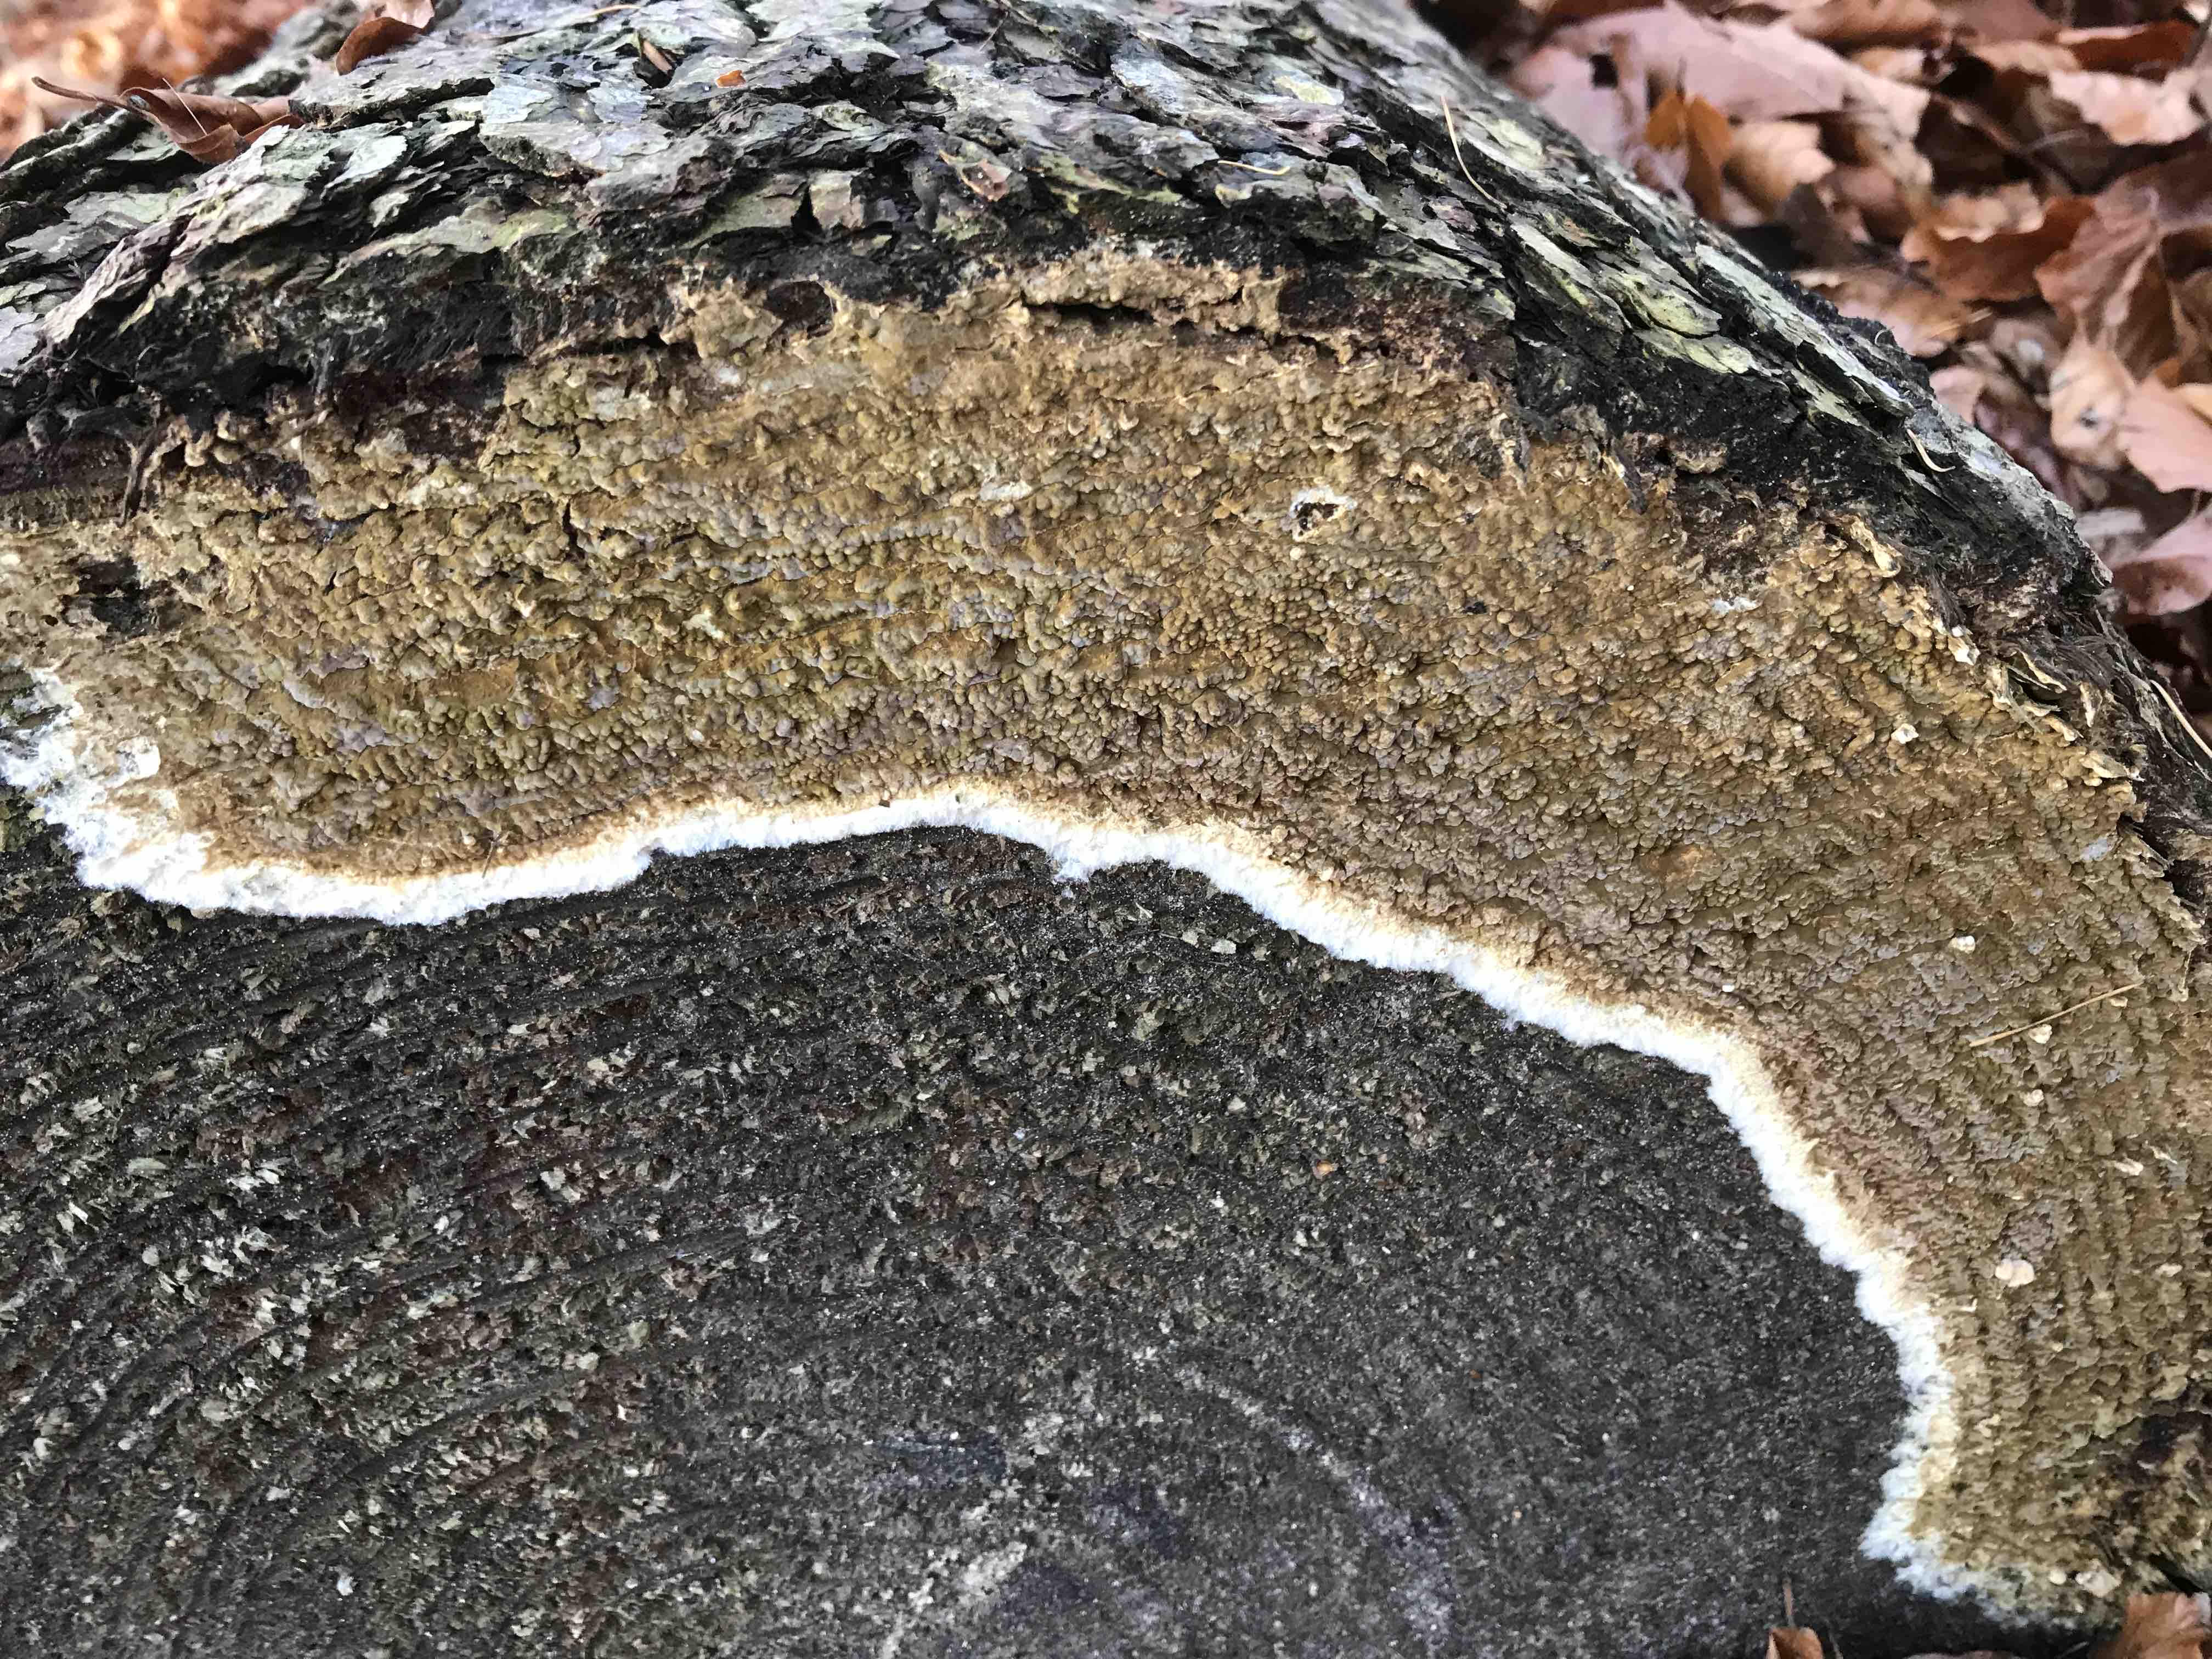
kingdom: Fungi
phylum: Basidiomycota
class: Agaricomycetes
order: Boletales
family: Coniophoraceae
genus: Coniophora
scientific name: Coniophora puteana
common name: gul tømmersvamp
